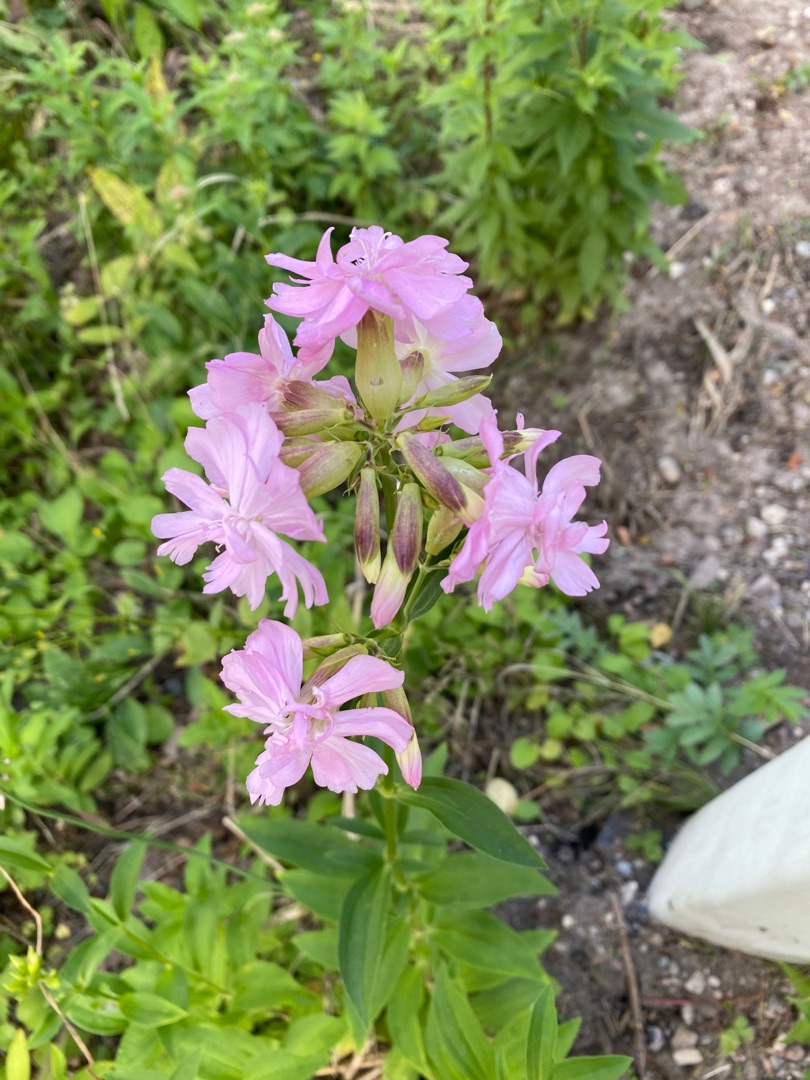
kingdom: Plantae
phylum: Tracheophyta
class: Magnoliopsida
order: Caryophyllales
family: Caryophyllaceae
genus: Saponaria
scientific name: Saponaria officinalis
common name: Sæbeurt
